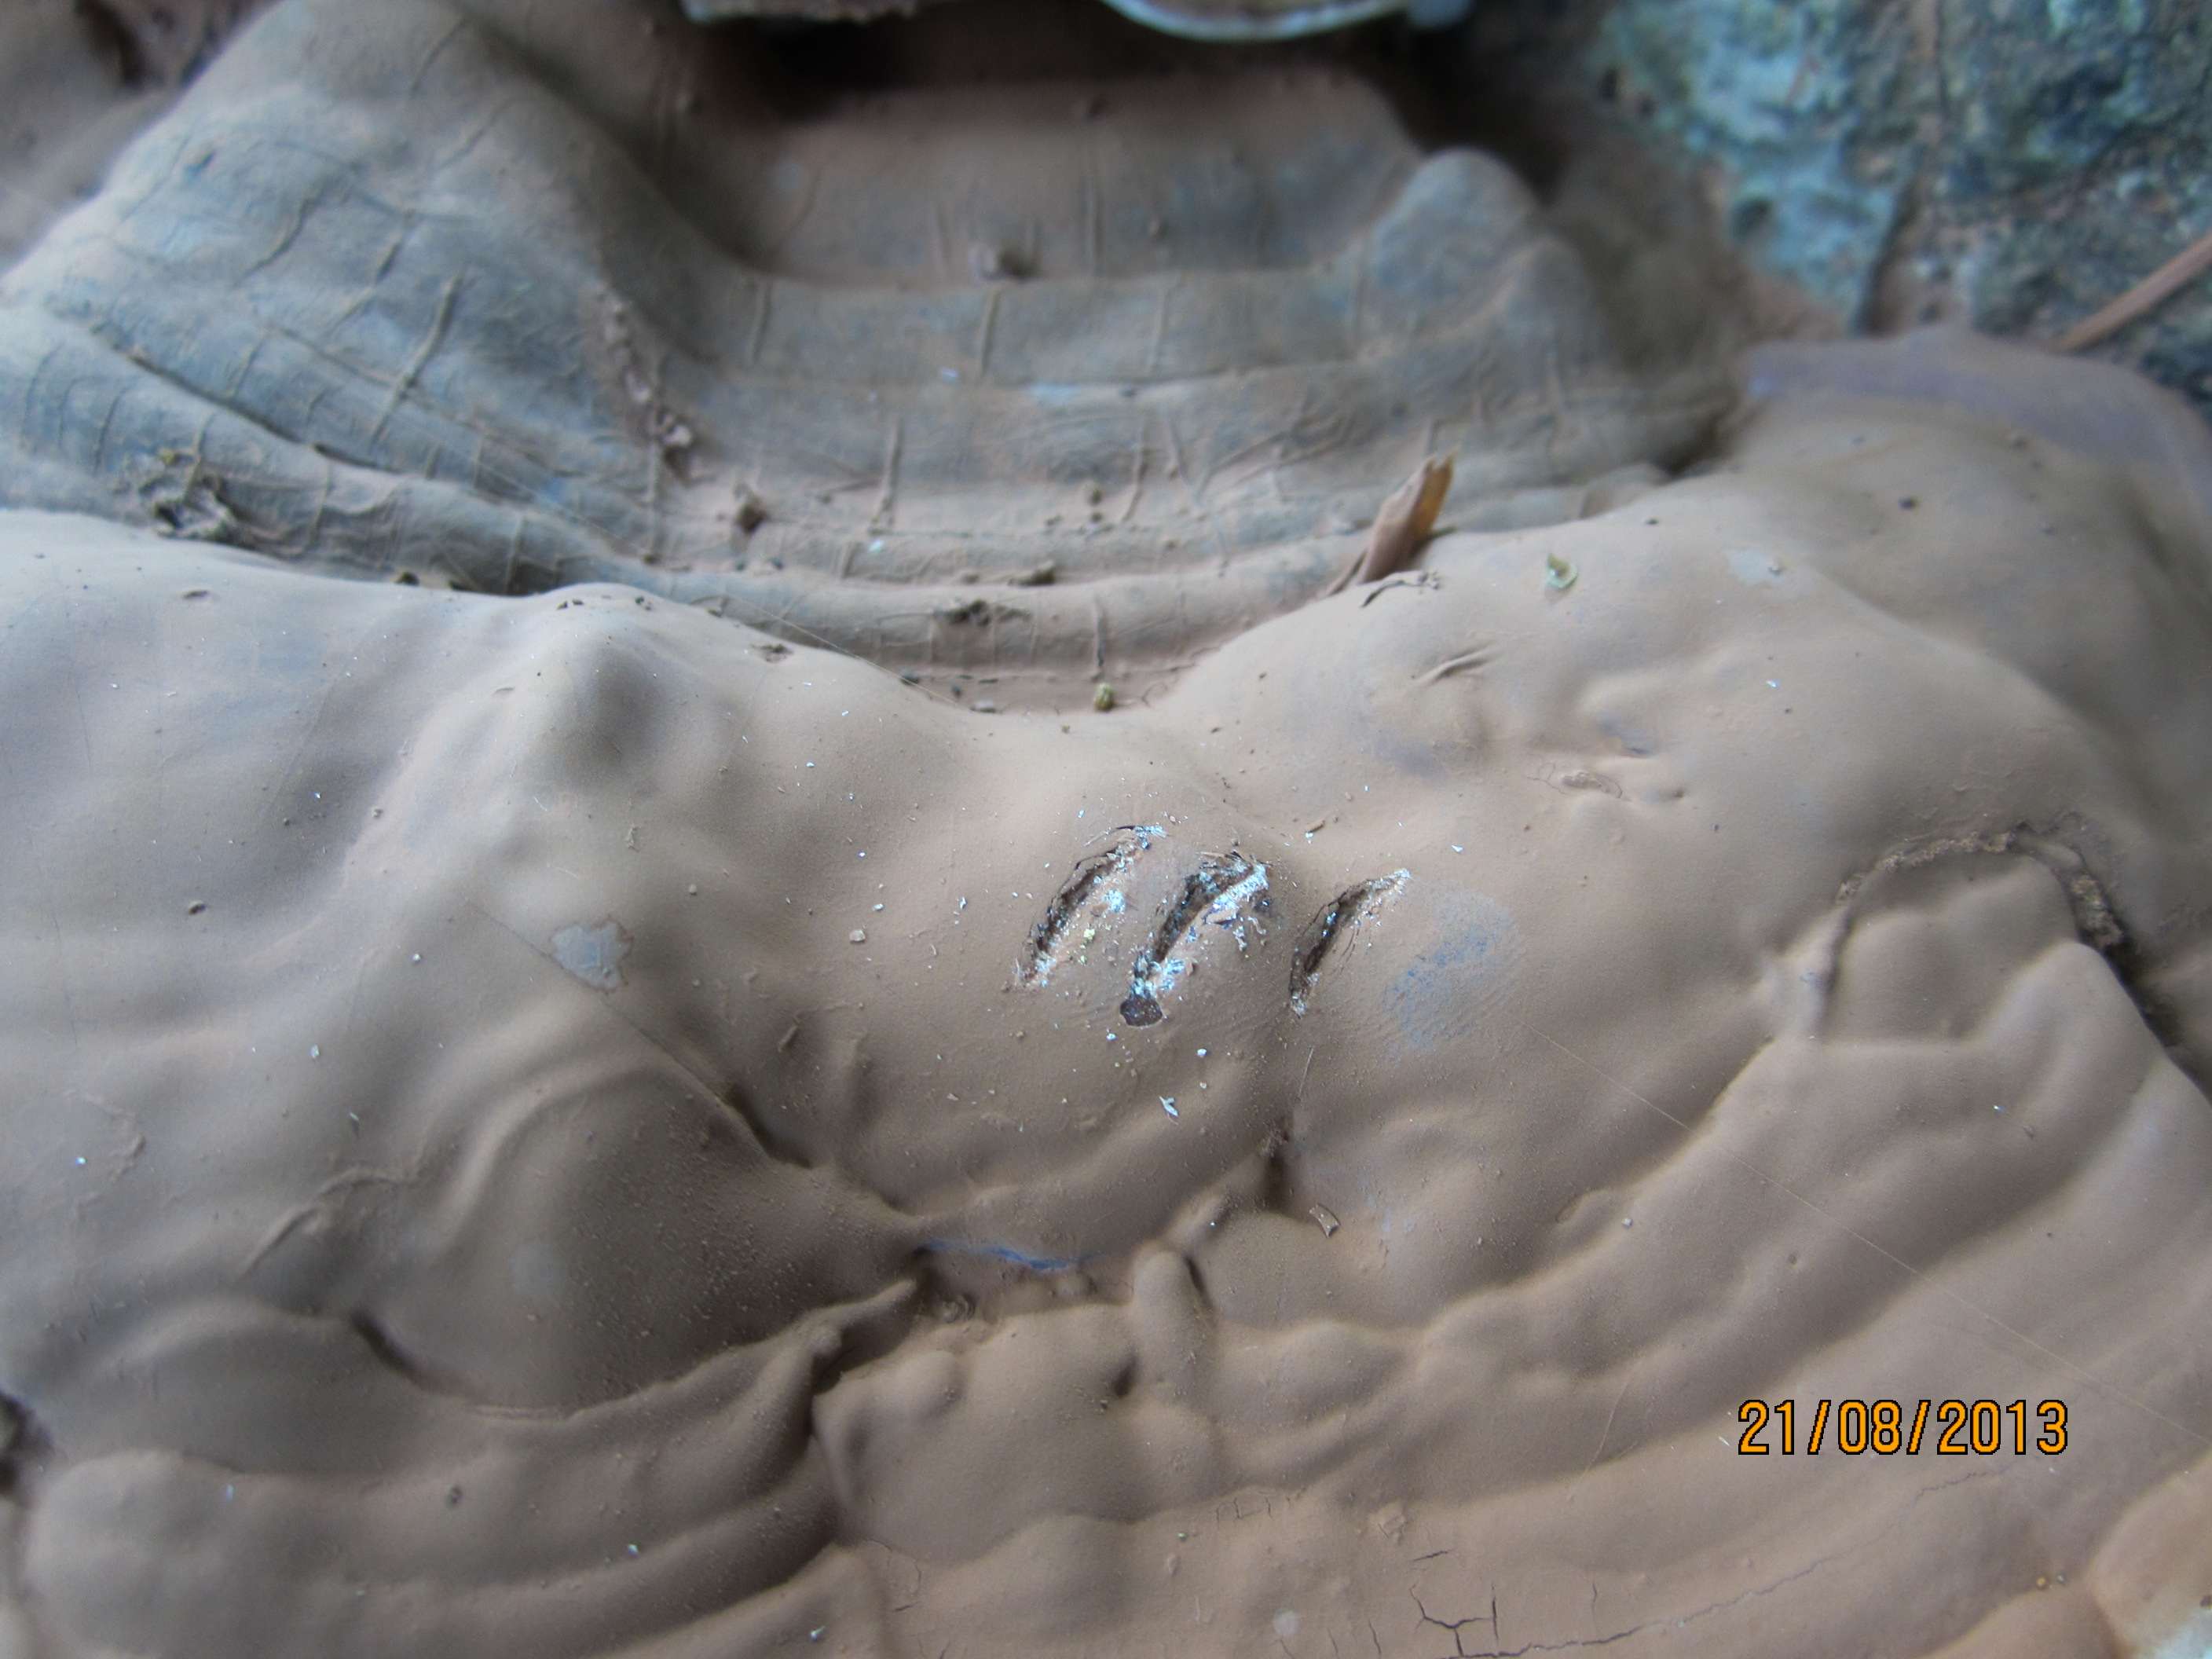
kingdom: Fungi
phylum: Basidiomycota
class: Agaricomycetes
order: Polyporales
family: Polyporaceae
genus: Ganoderma
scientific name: Ganoderma pfeifferi
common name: kobberrød lakporesvamp
